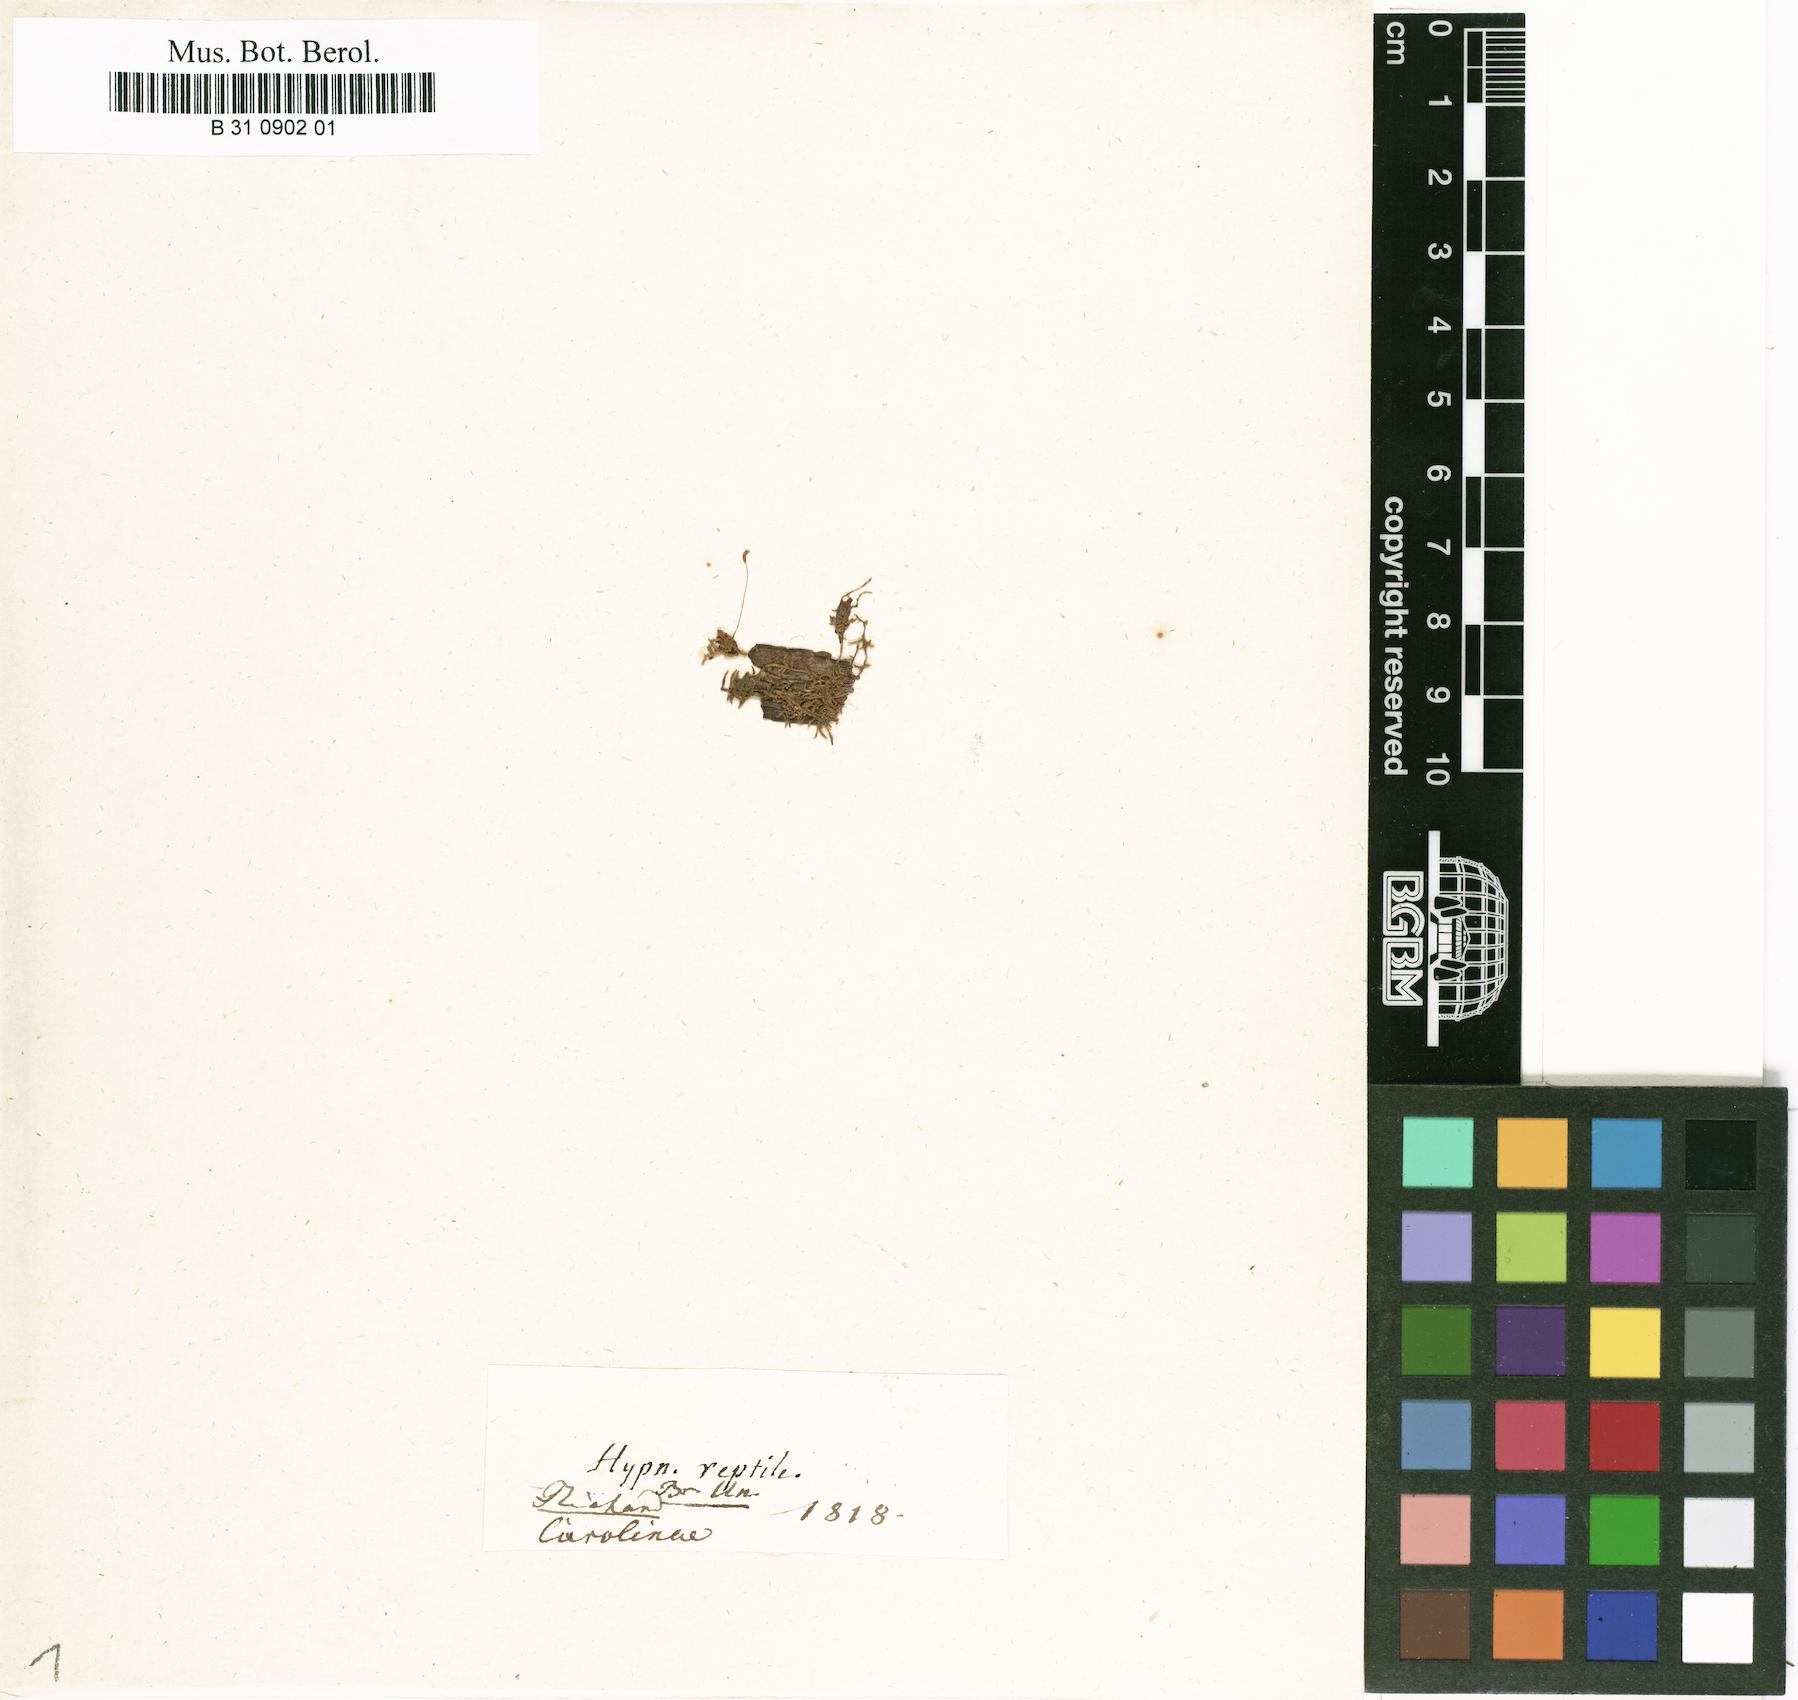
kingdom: Plantae
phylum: Bryophyta
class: Bryopsida
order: Hypnales
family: Jocheniaceae
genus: Jochenia
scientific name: Jochenia pallescens
